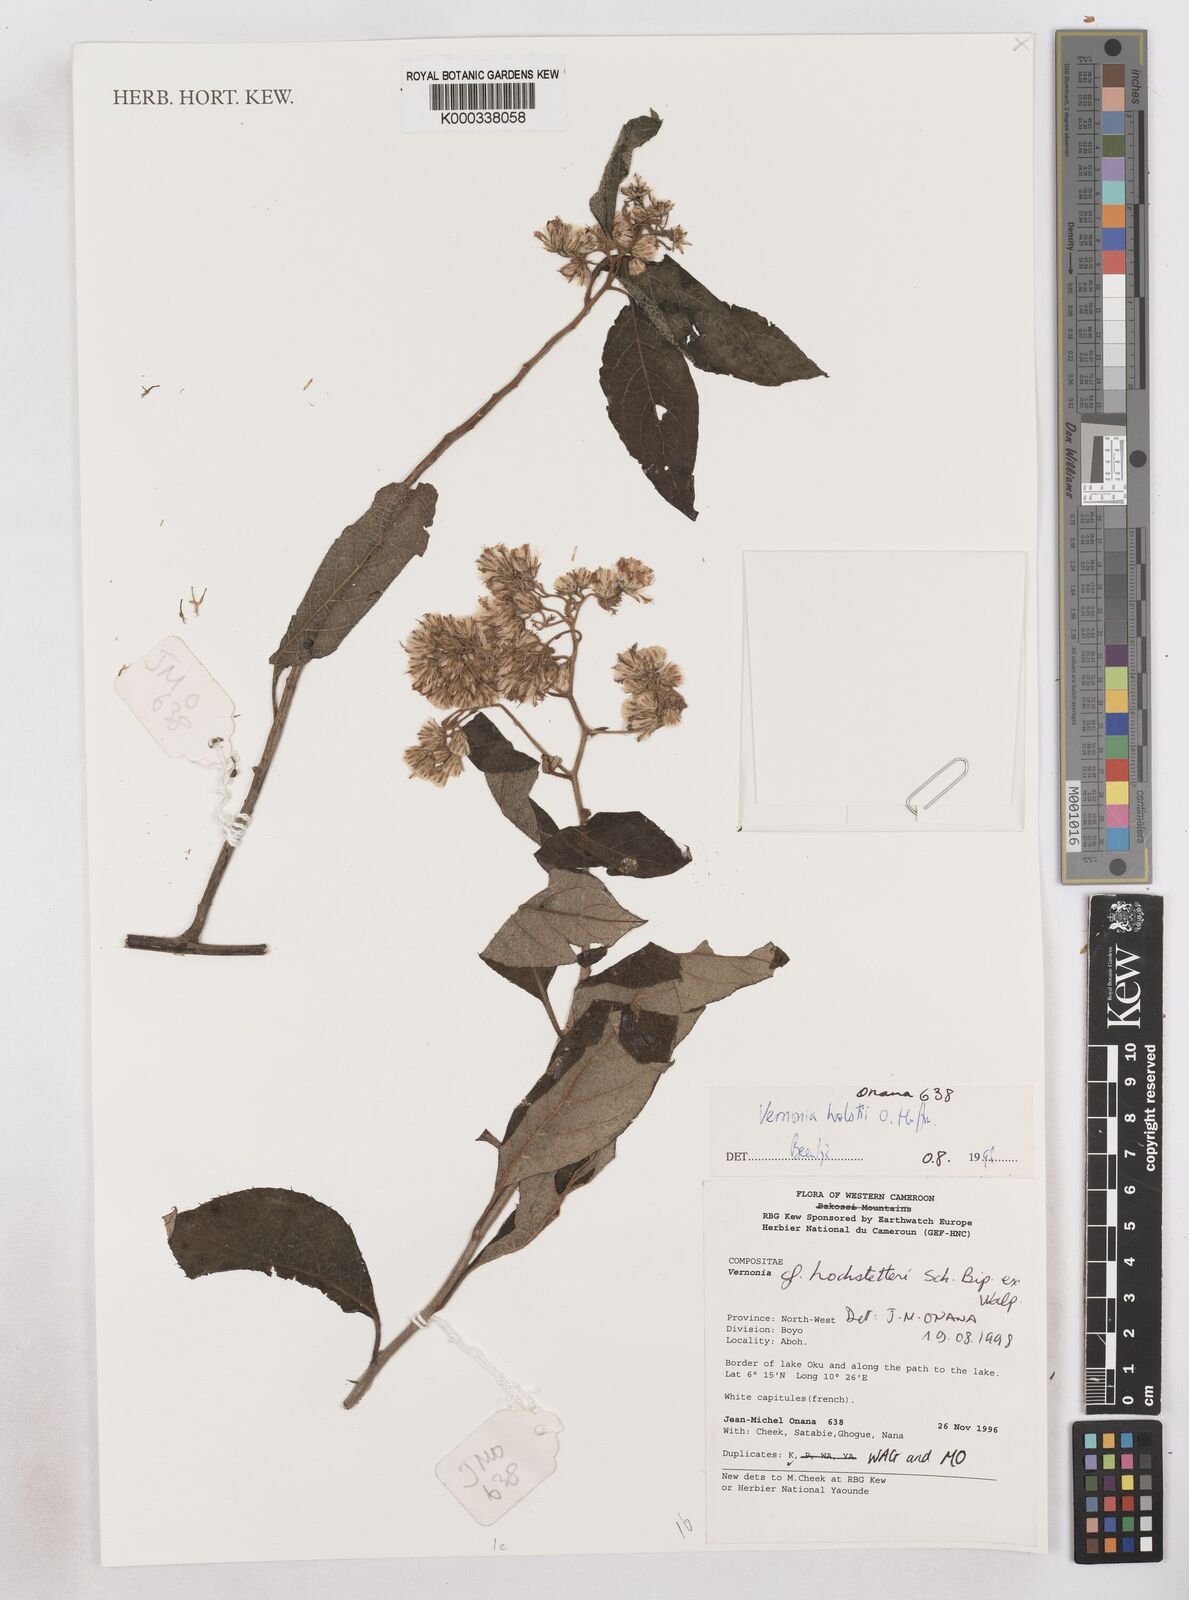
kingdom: Plantae
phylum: Tracheophyta
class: Magnoliopsida
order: Asterales
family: Asteraceae
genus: Vernonia
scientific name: Vernonia holstii
